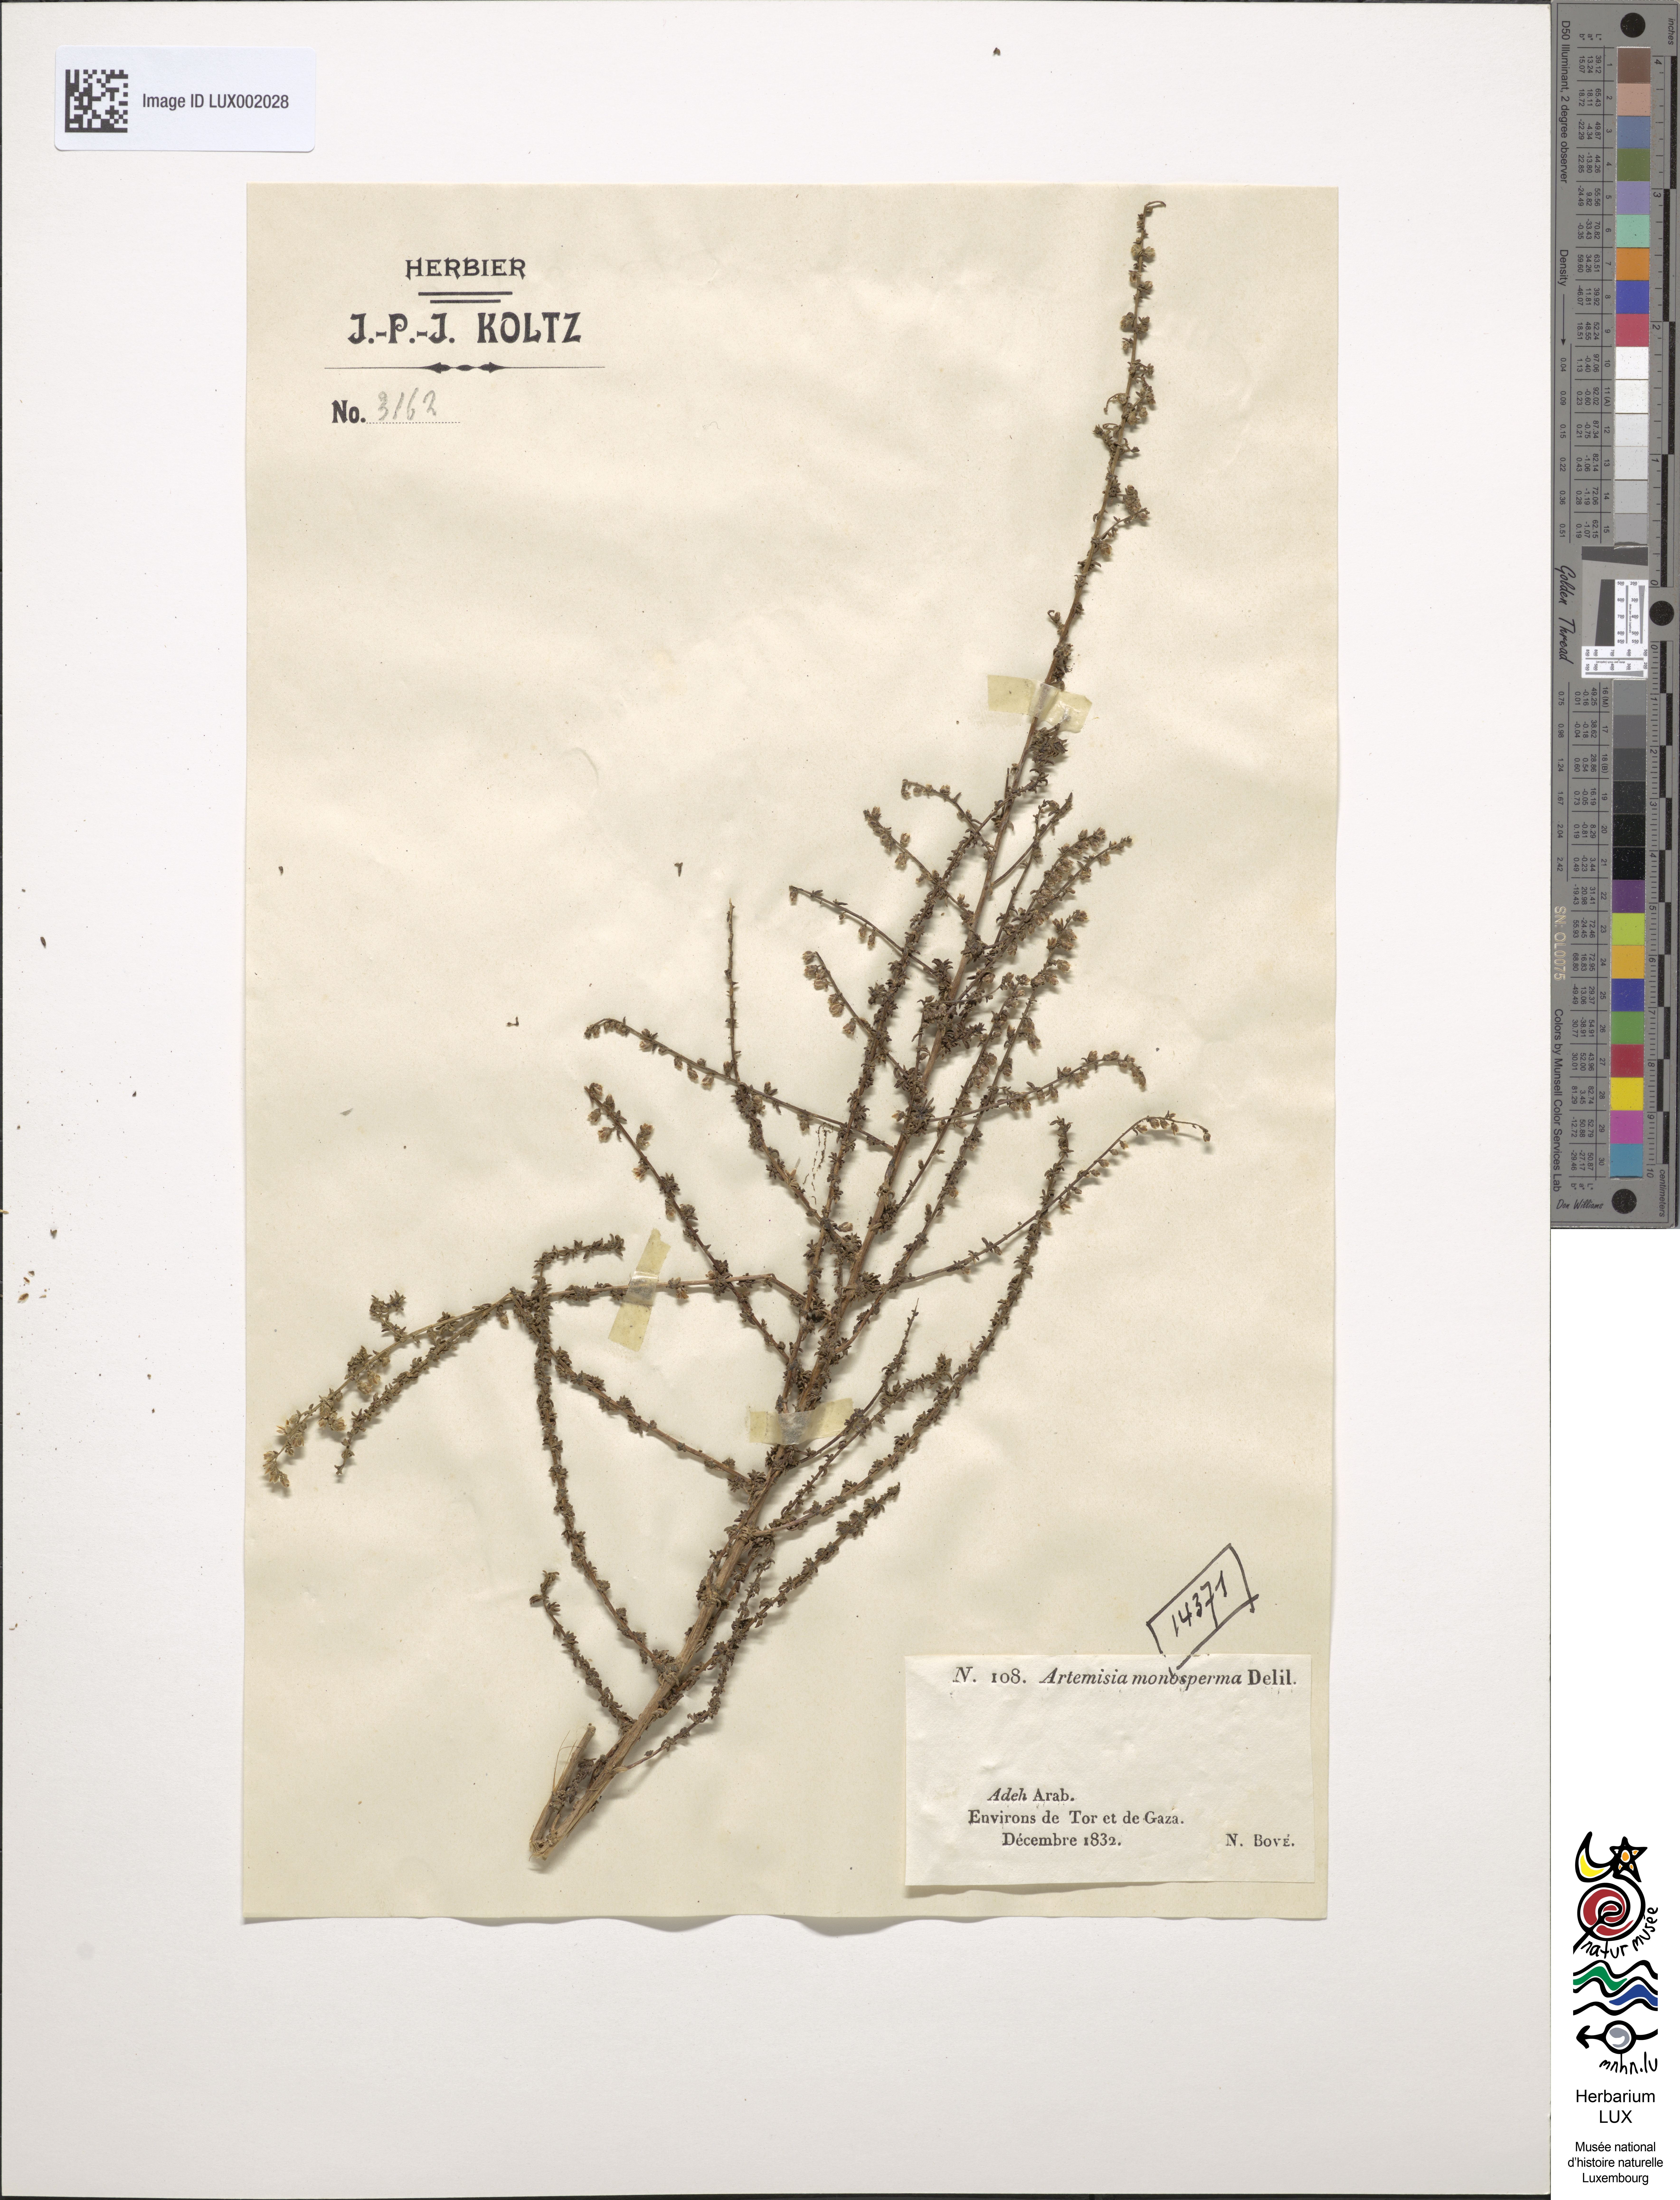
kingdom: Plantae
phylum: Tracheophyta
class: Magnoliopsida
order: Asterales
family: Asteraceae
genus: Artemisia
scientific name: Artemisia monosperma
